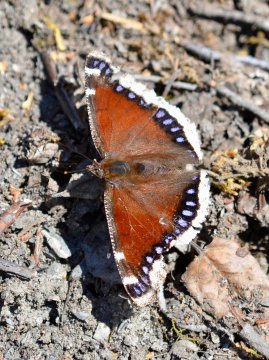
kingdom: Animalia
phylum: Arthropoda
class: Insecta
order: Lepidoptera
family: Nymphalidae
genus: Nymphalis
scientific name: Nymphalis antiopa
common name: Mourning Cloak
